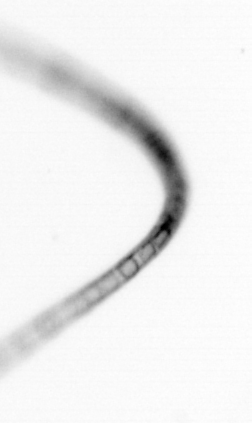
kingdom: Chromista
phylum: Ochrophyta
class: Bacillariophyceae
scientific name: Bacillariophyceae
